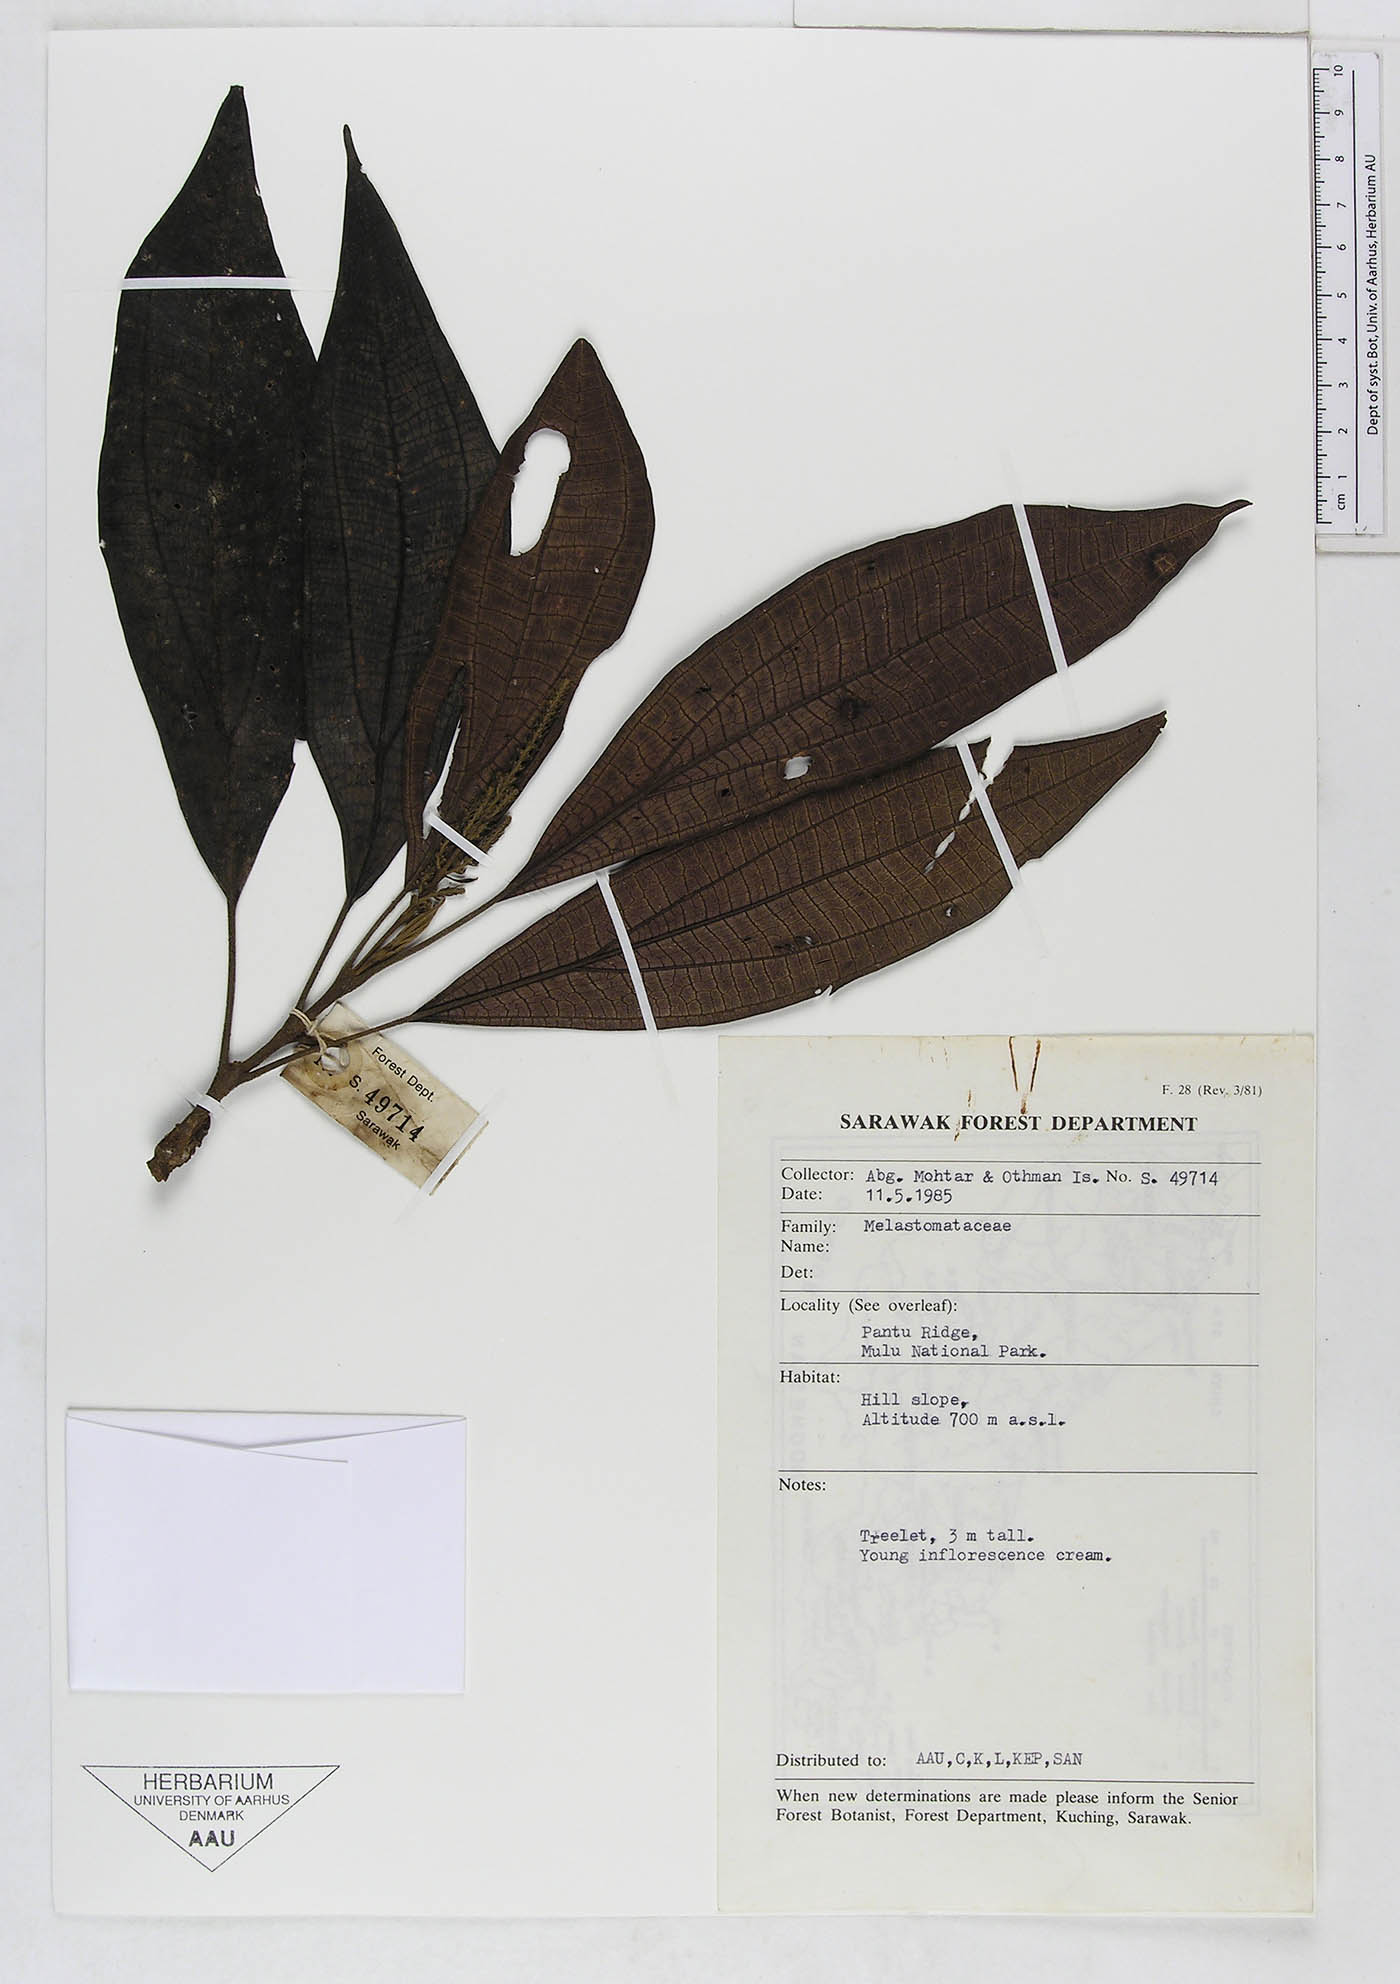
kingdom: Plantae
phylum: Tracheophyta
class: Magnoliopsida
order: Myrtales
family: Melastomataceae
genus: Oxyspora
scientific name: Oxyspora beccarii
